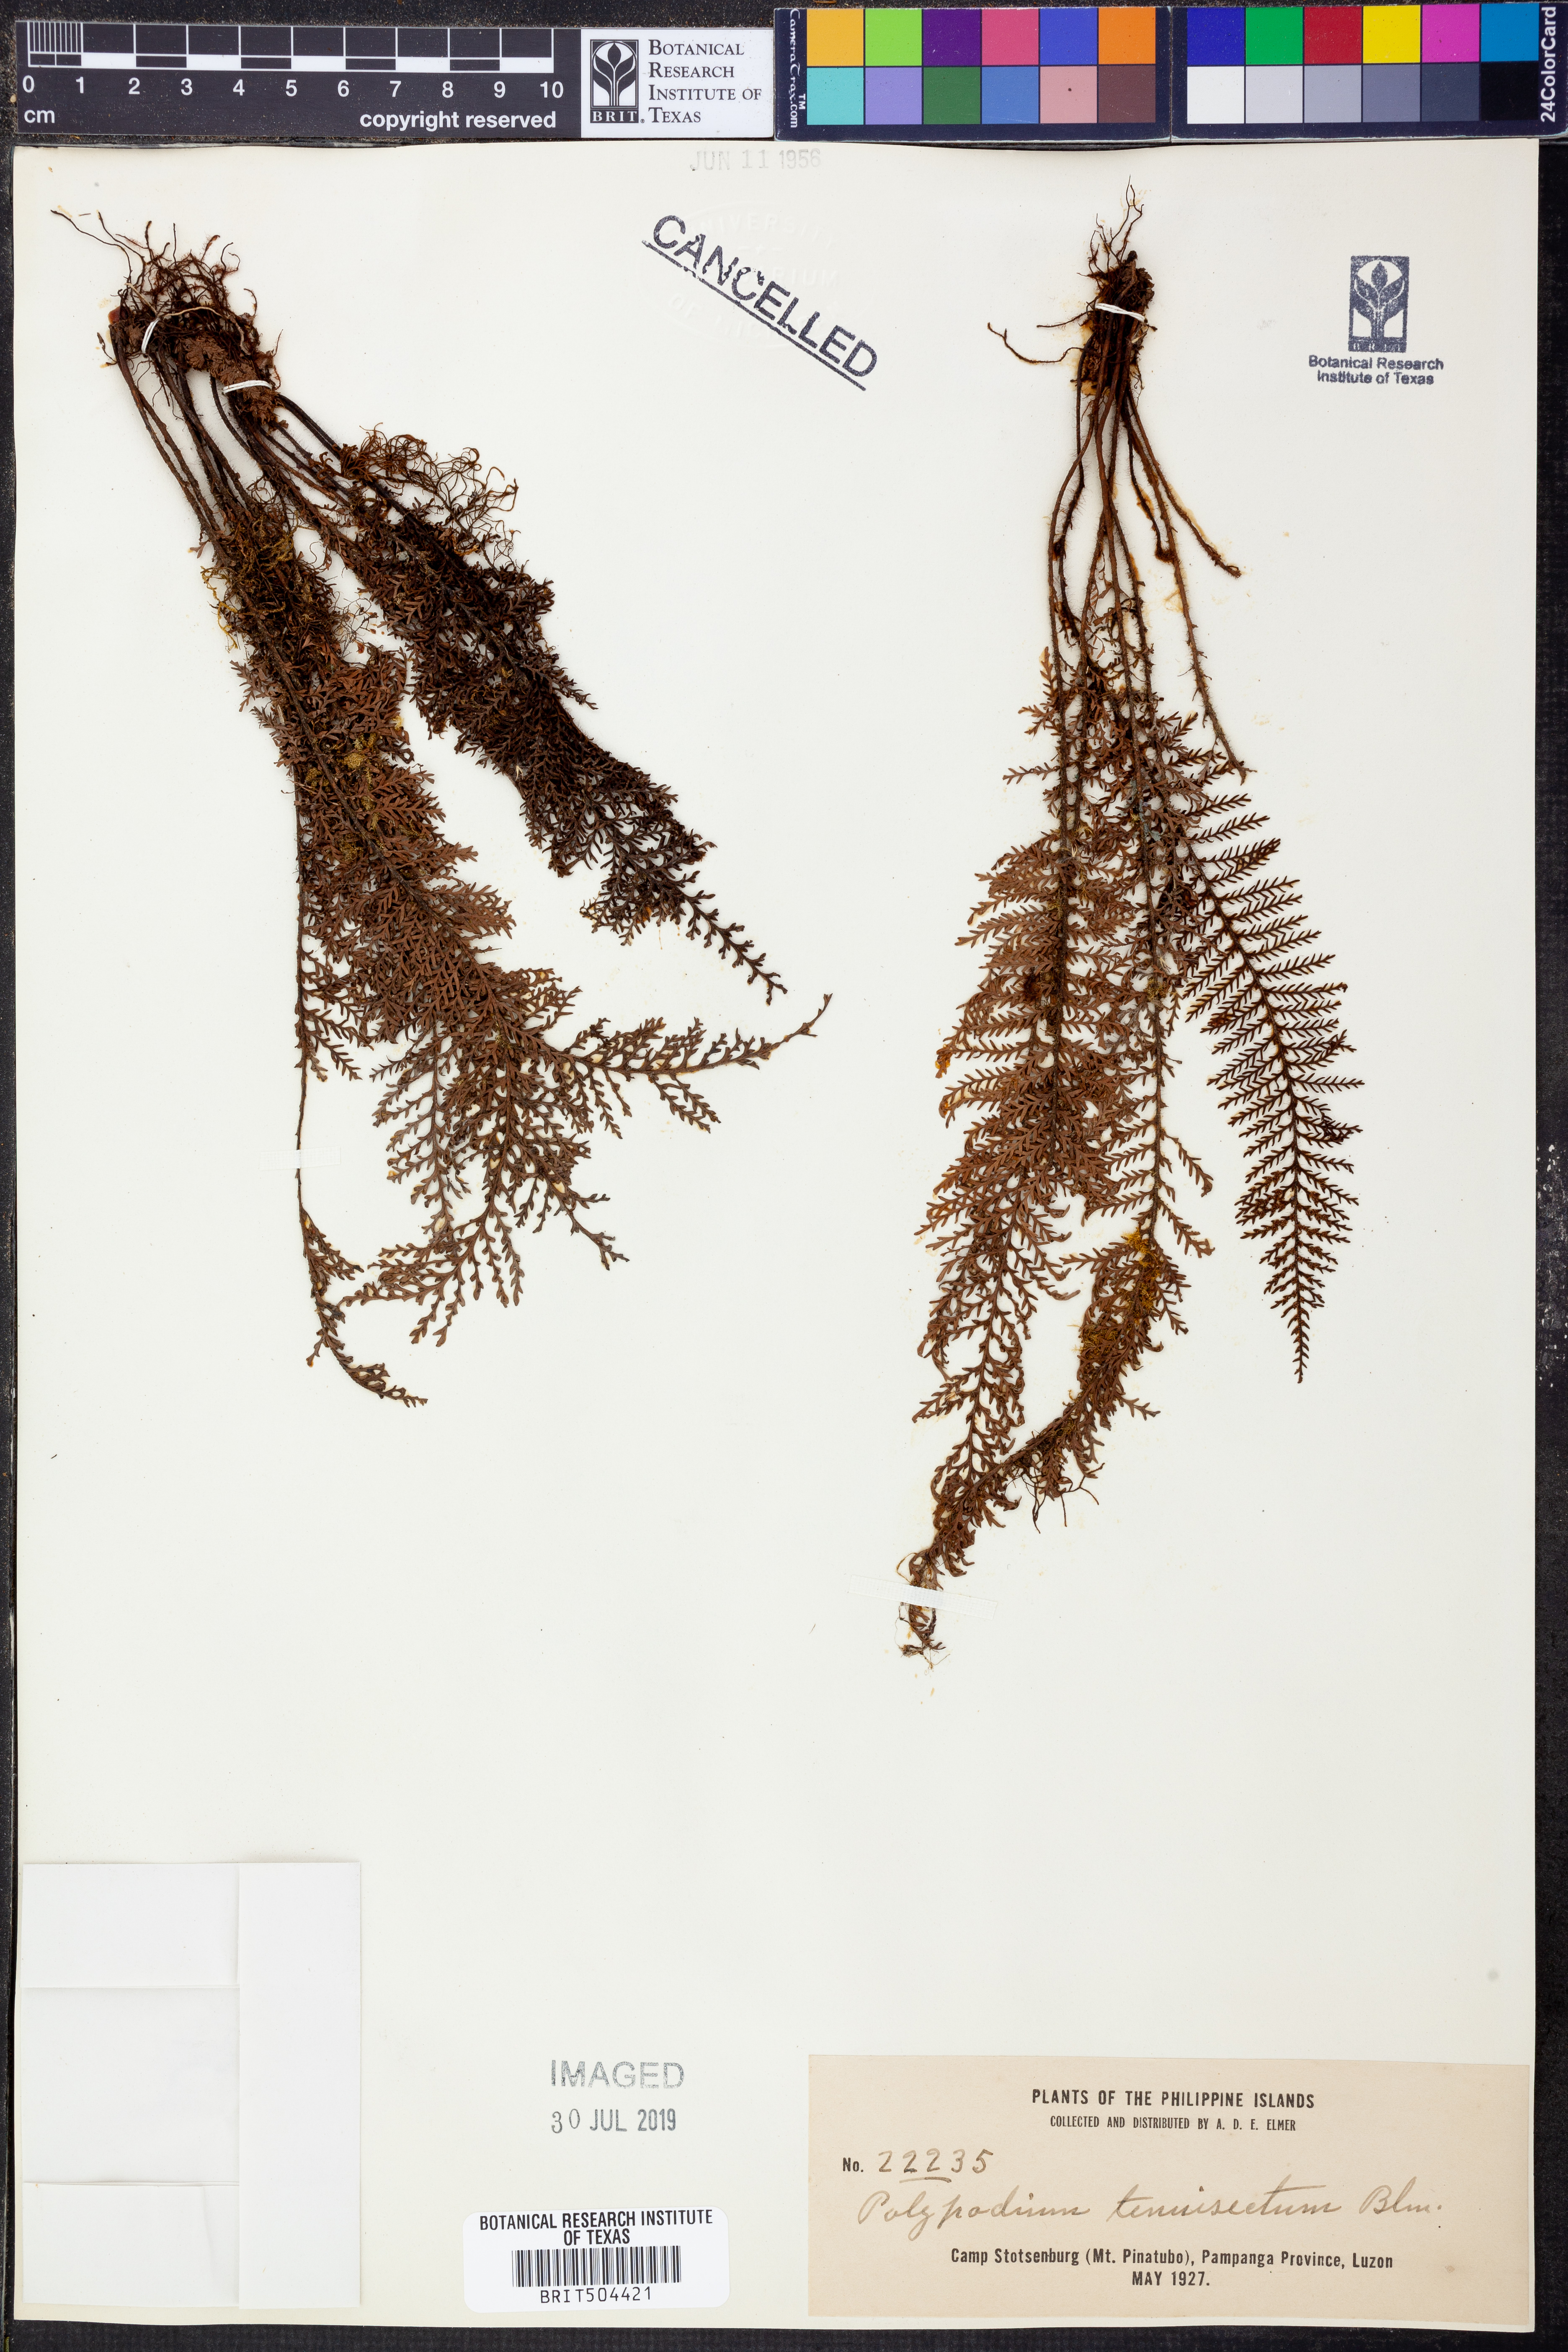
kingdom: Plantae
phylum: Tracheophyta
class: Polypodiopsida
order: Polypodiales
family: Polypodiaceae
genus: Oreogrammitis
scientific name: Oreogrammitis tenuisecta
